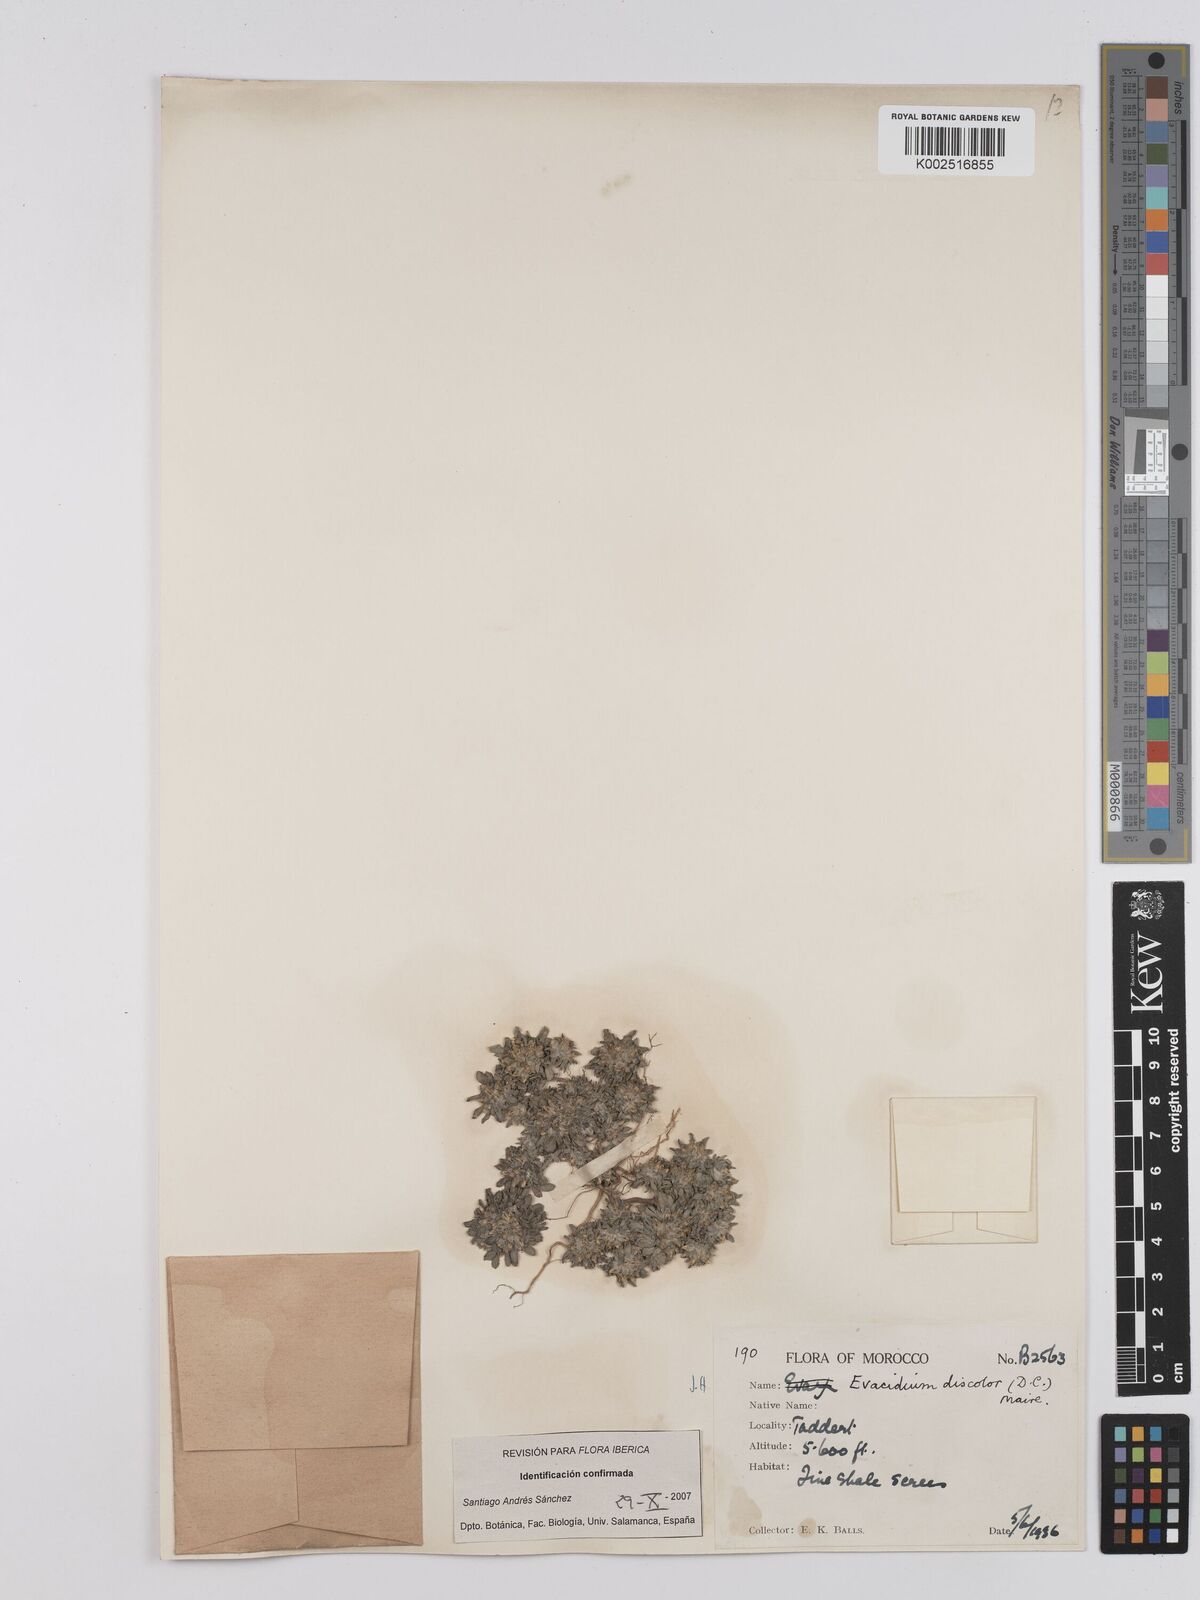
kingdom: Plantae
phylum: Tracheophyta
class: Magnoliopsida
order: Asterales
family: Asteraceae
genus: Filago
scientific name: Filago discolor
